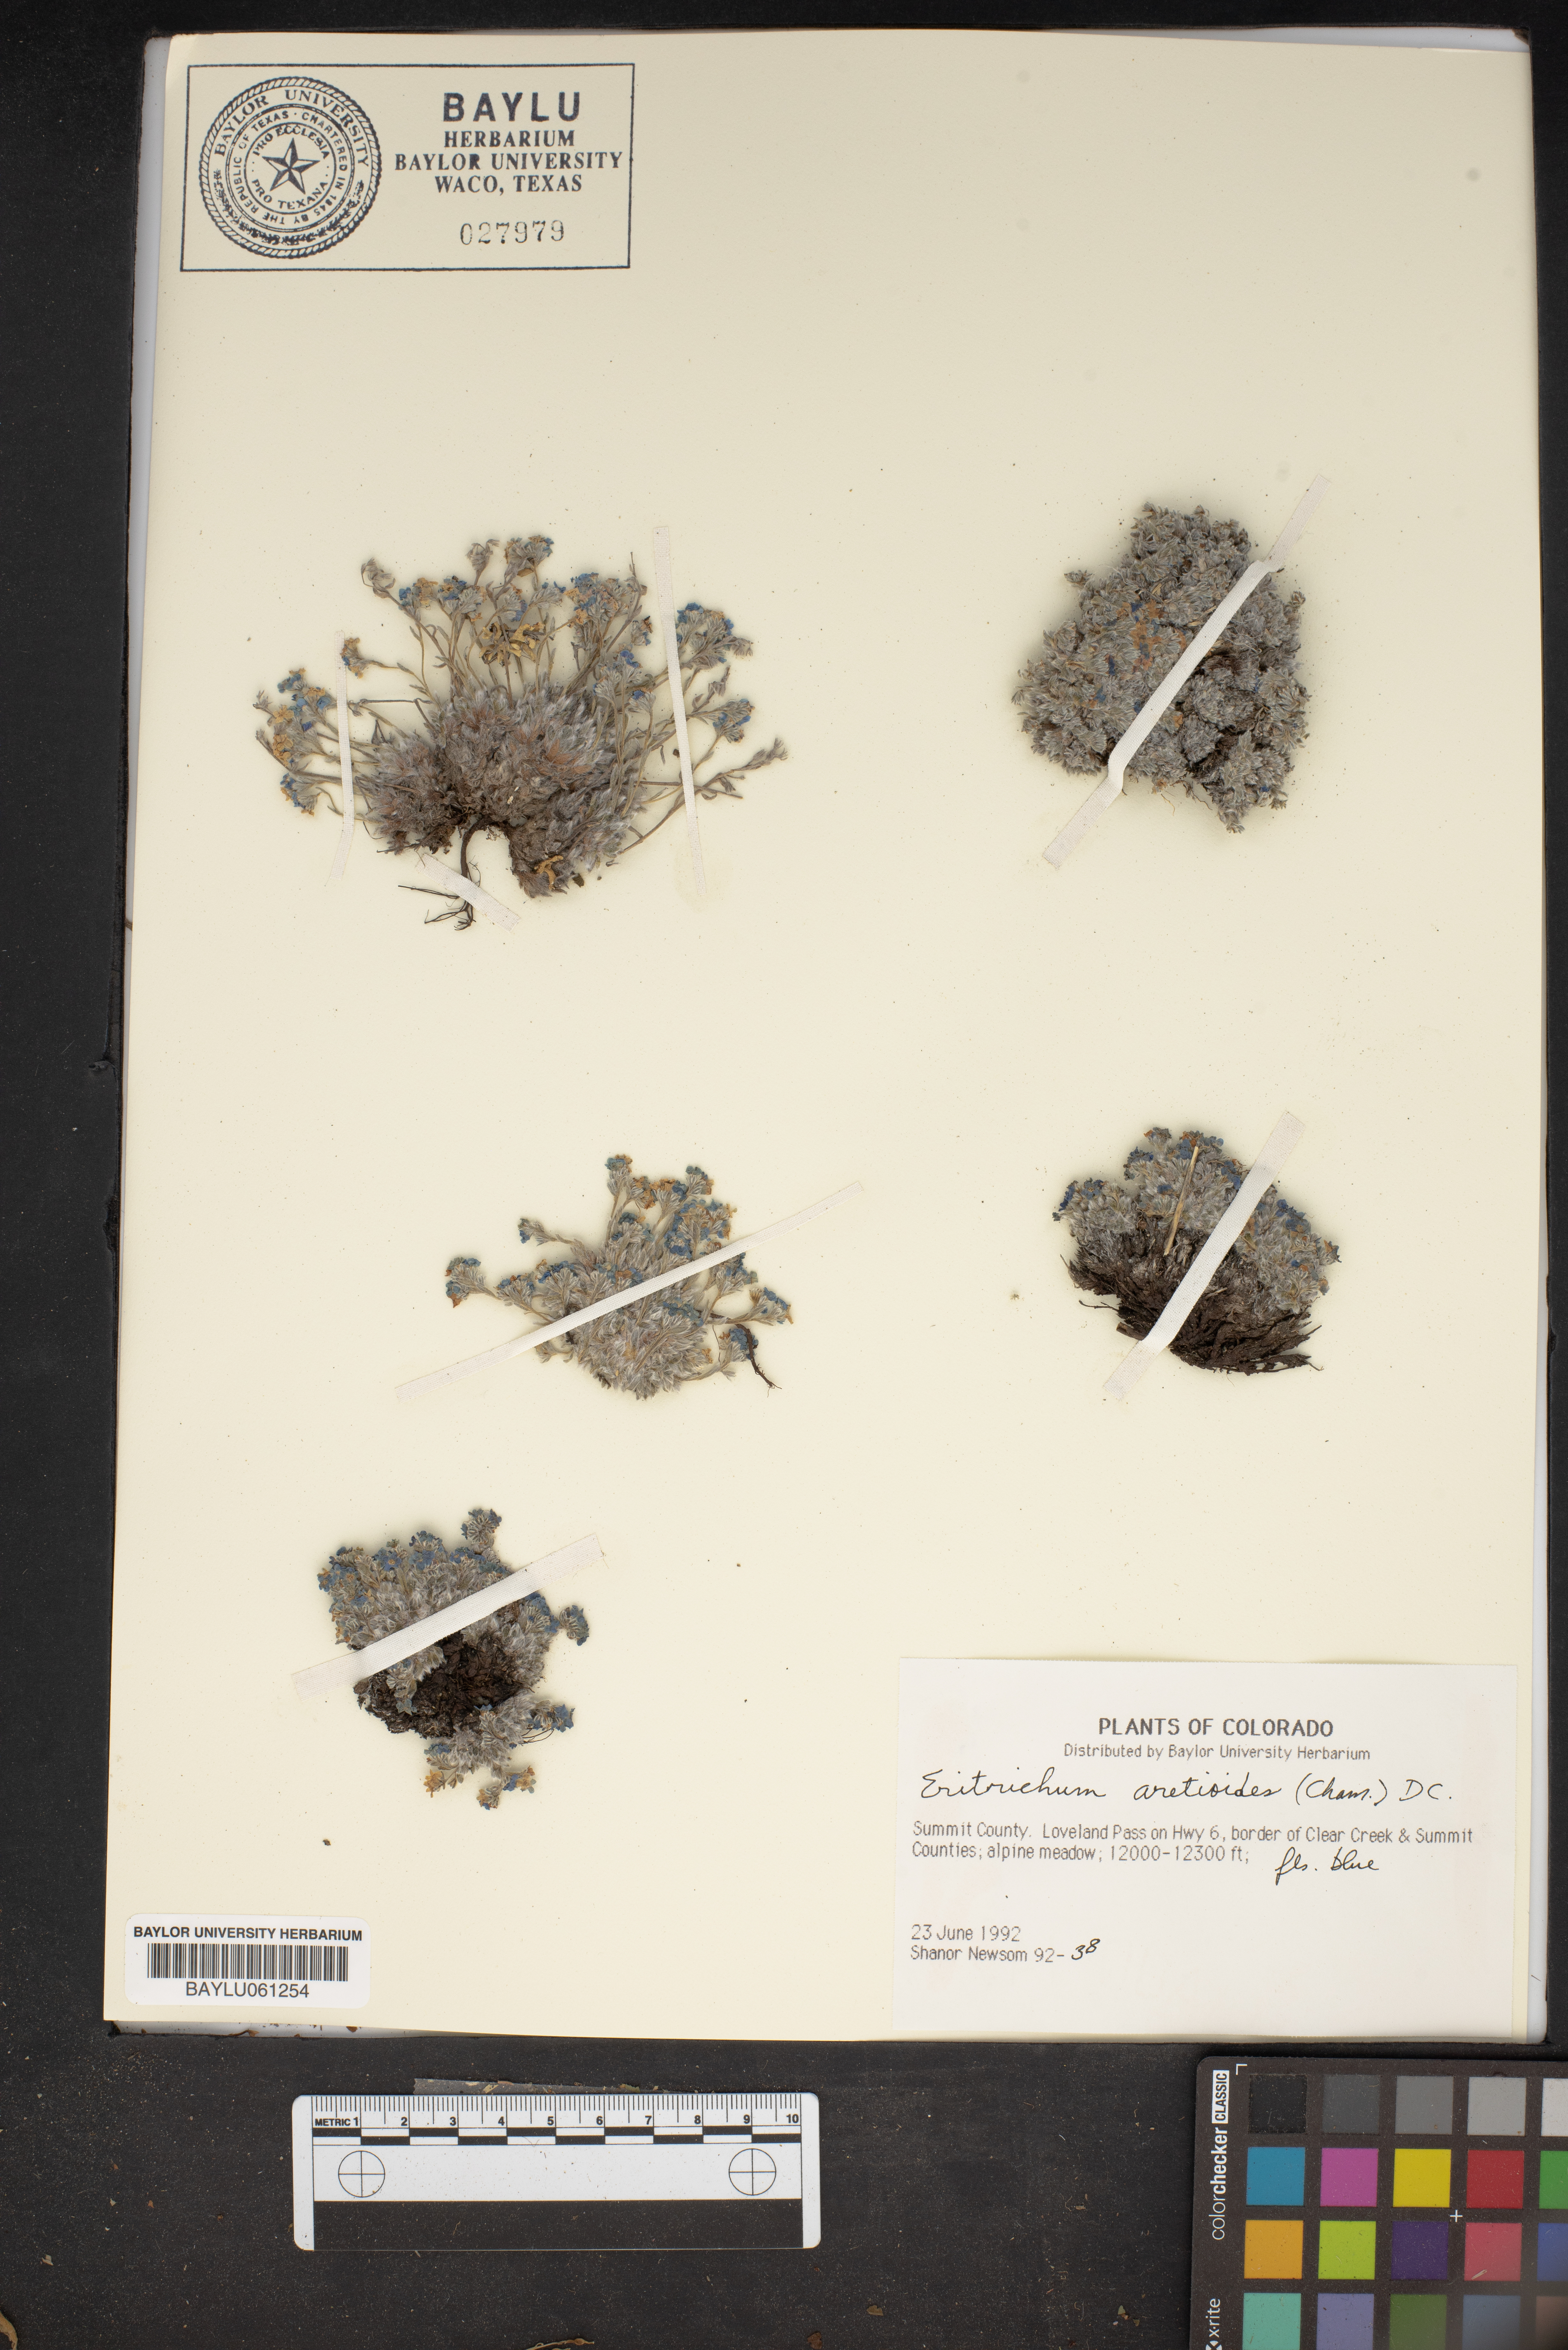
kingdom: Plantae
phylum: Tracheophyta
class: Magnoliopsida
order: Boraginales
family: Boraginaceae
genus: Eritrichium
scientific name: Eritrichium aretioides
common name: Arctic-alpine forget-me-not
